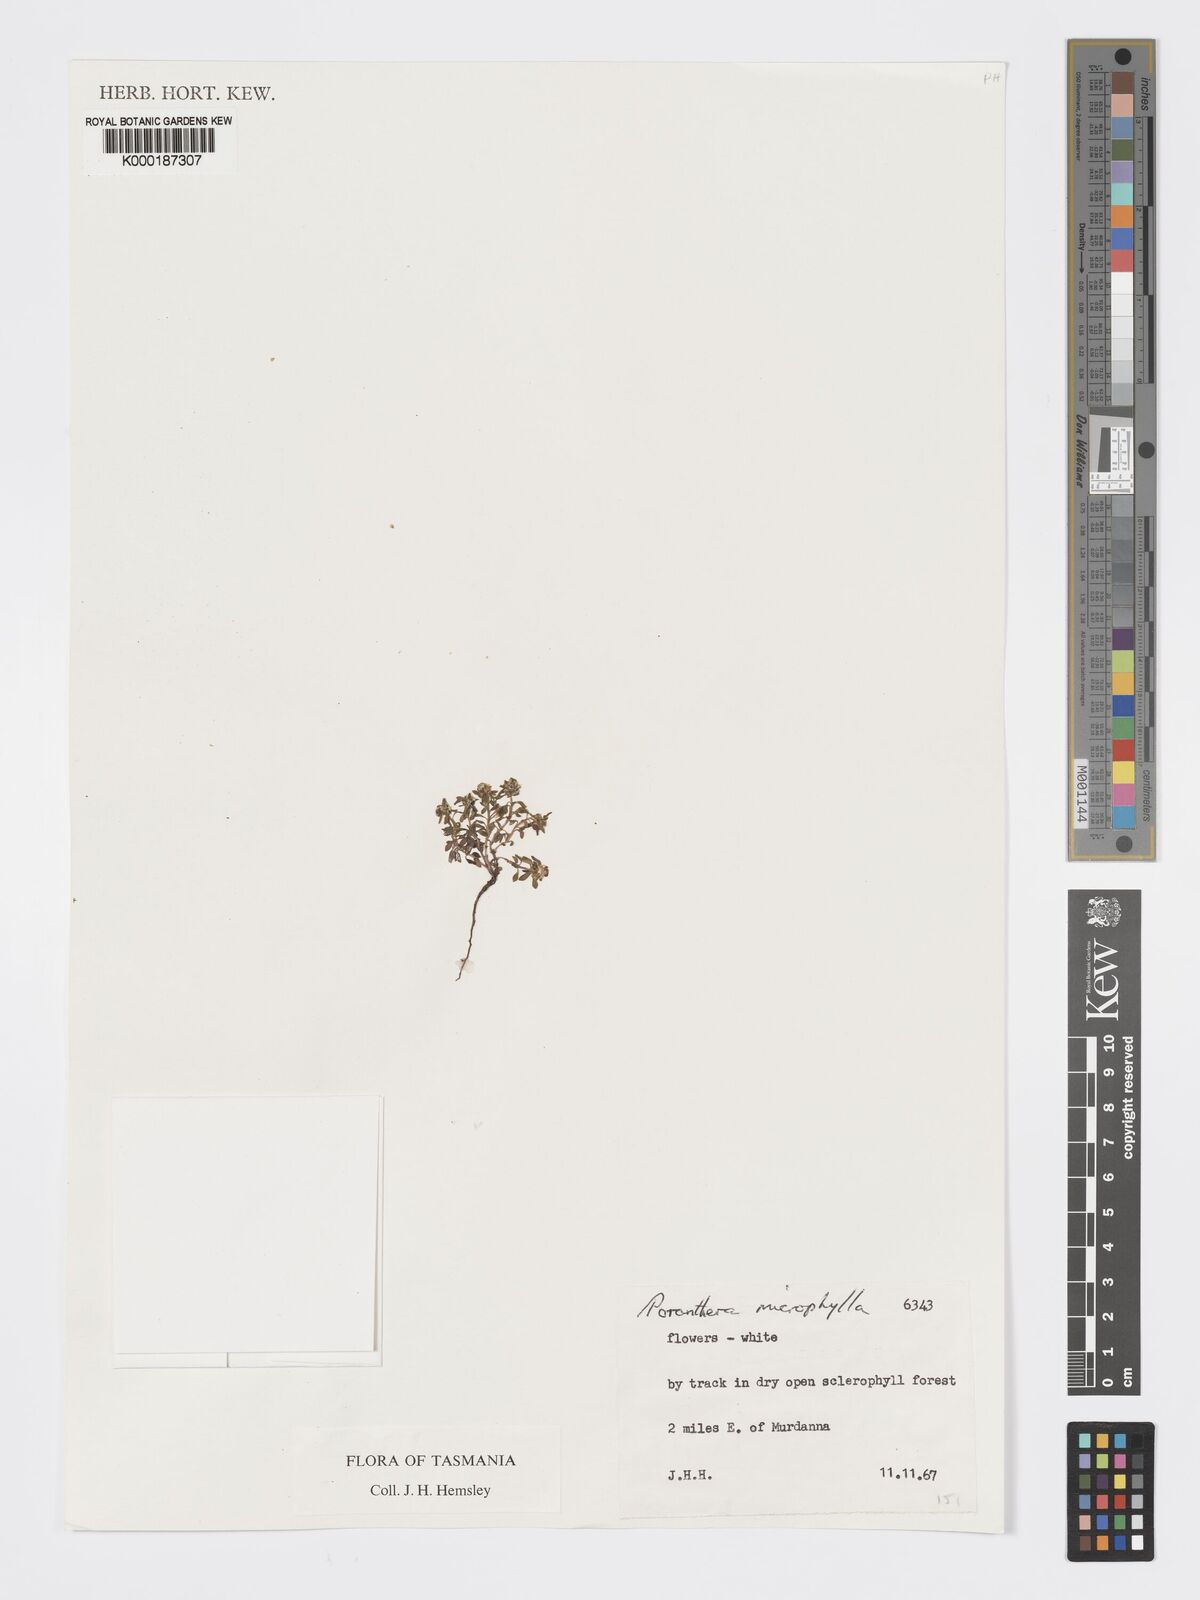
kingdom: Plantae
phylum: Tracheophyta
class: Magnoliopsida
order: Malpighiales
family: Phyllanthaceae
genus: Poranthera
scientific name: Poranthera microphylla
